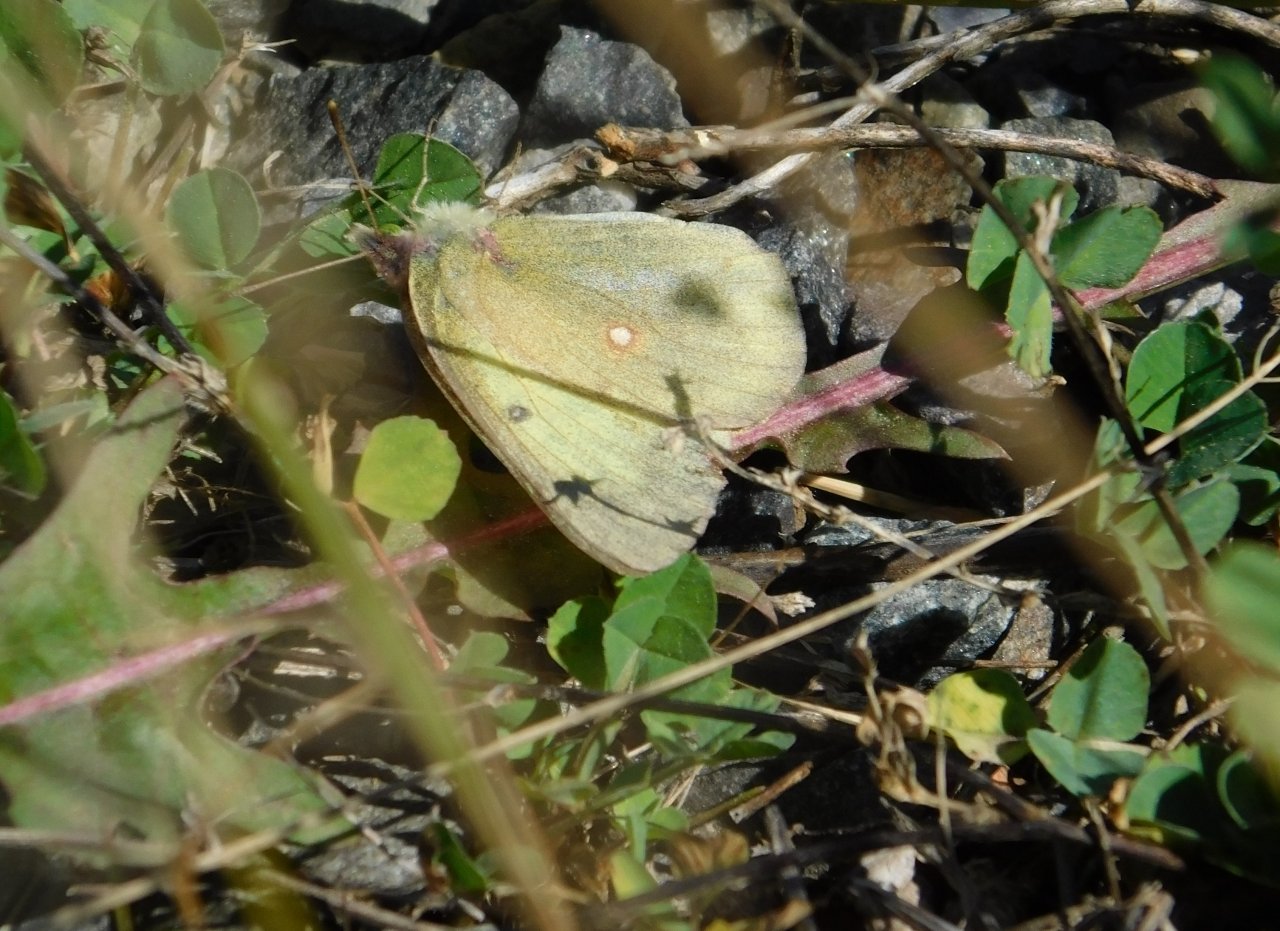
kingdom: Animalia
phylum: Arthropoda
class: Insecta
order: Lepidoptera
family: Pieridae
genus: Colias
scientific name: Colias philodice
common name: Clouded Sulphur
